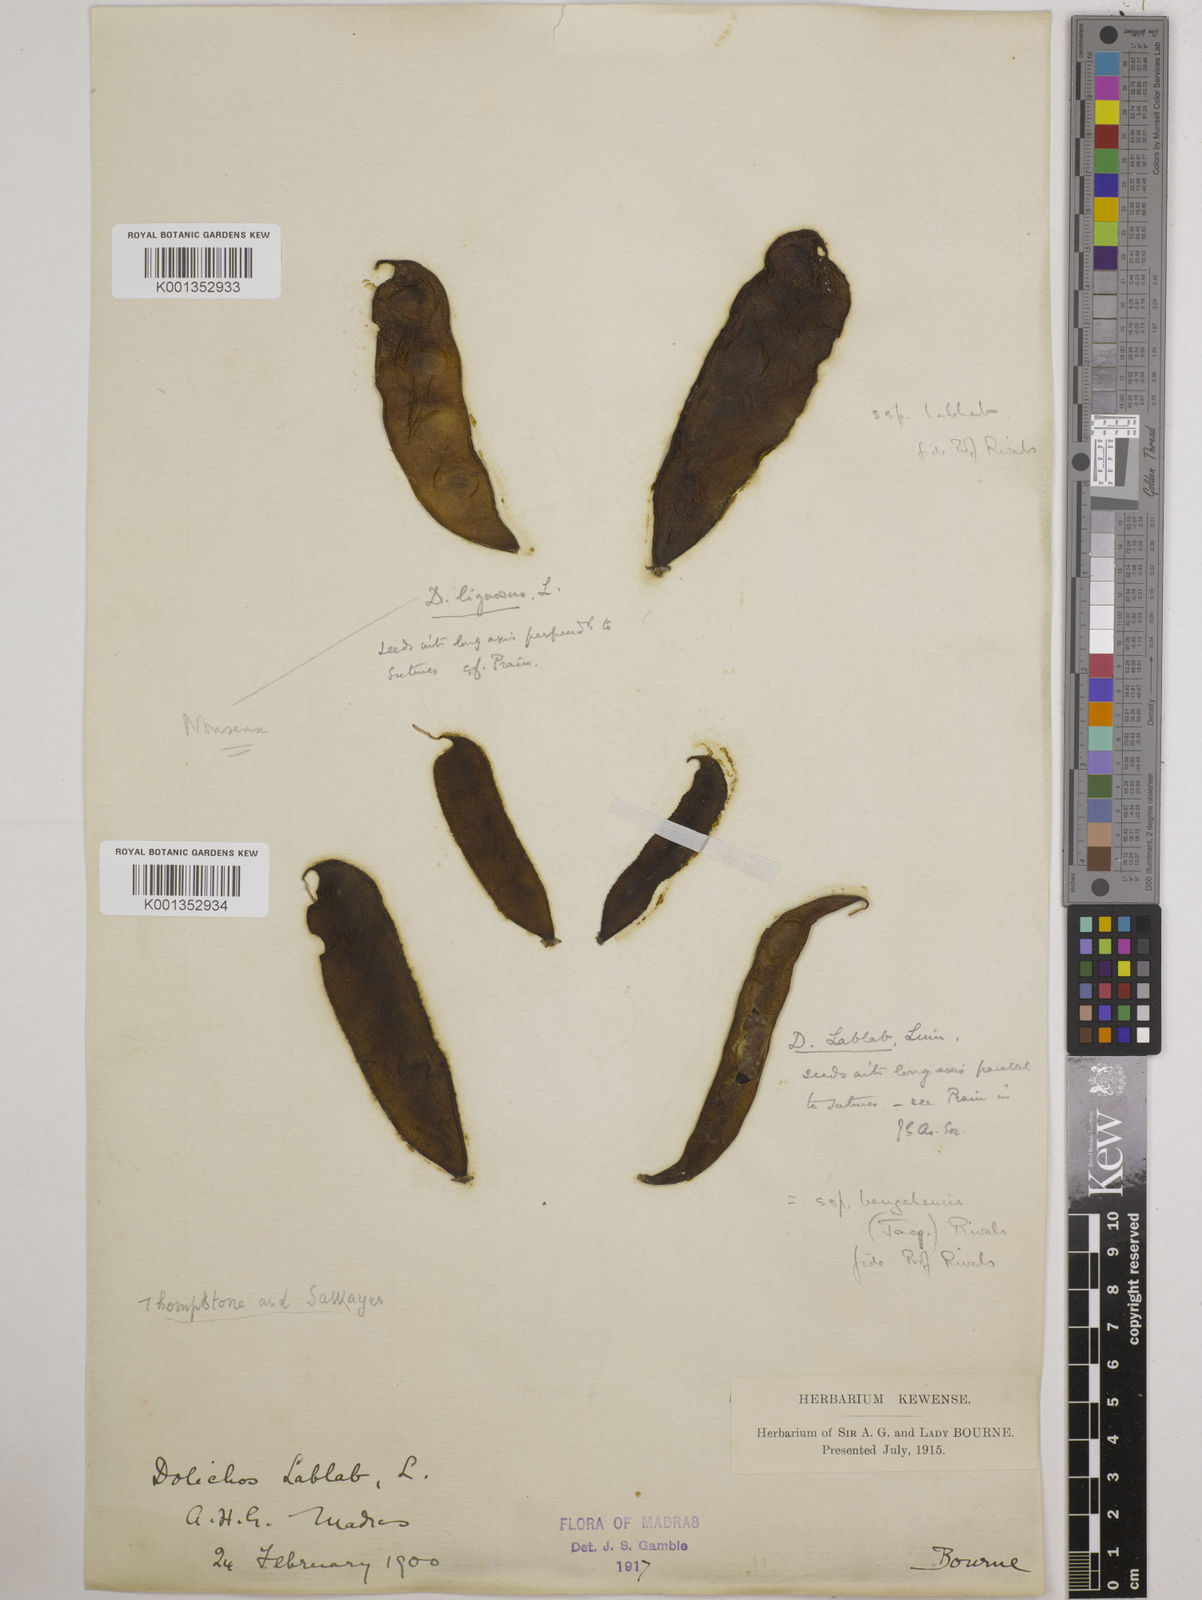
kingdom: Plantae
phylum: Tracheophyta
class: Magnoliopsida
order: Fabales
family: Fabaceae
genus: Lablab
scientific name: Lablab purpureus
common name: Lablab-bean
